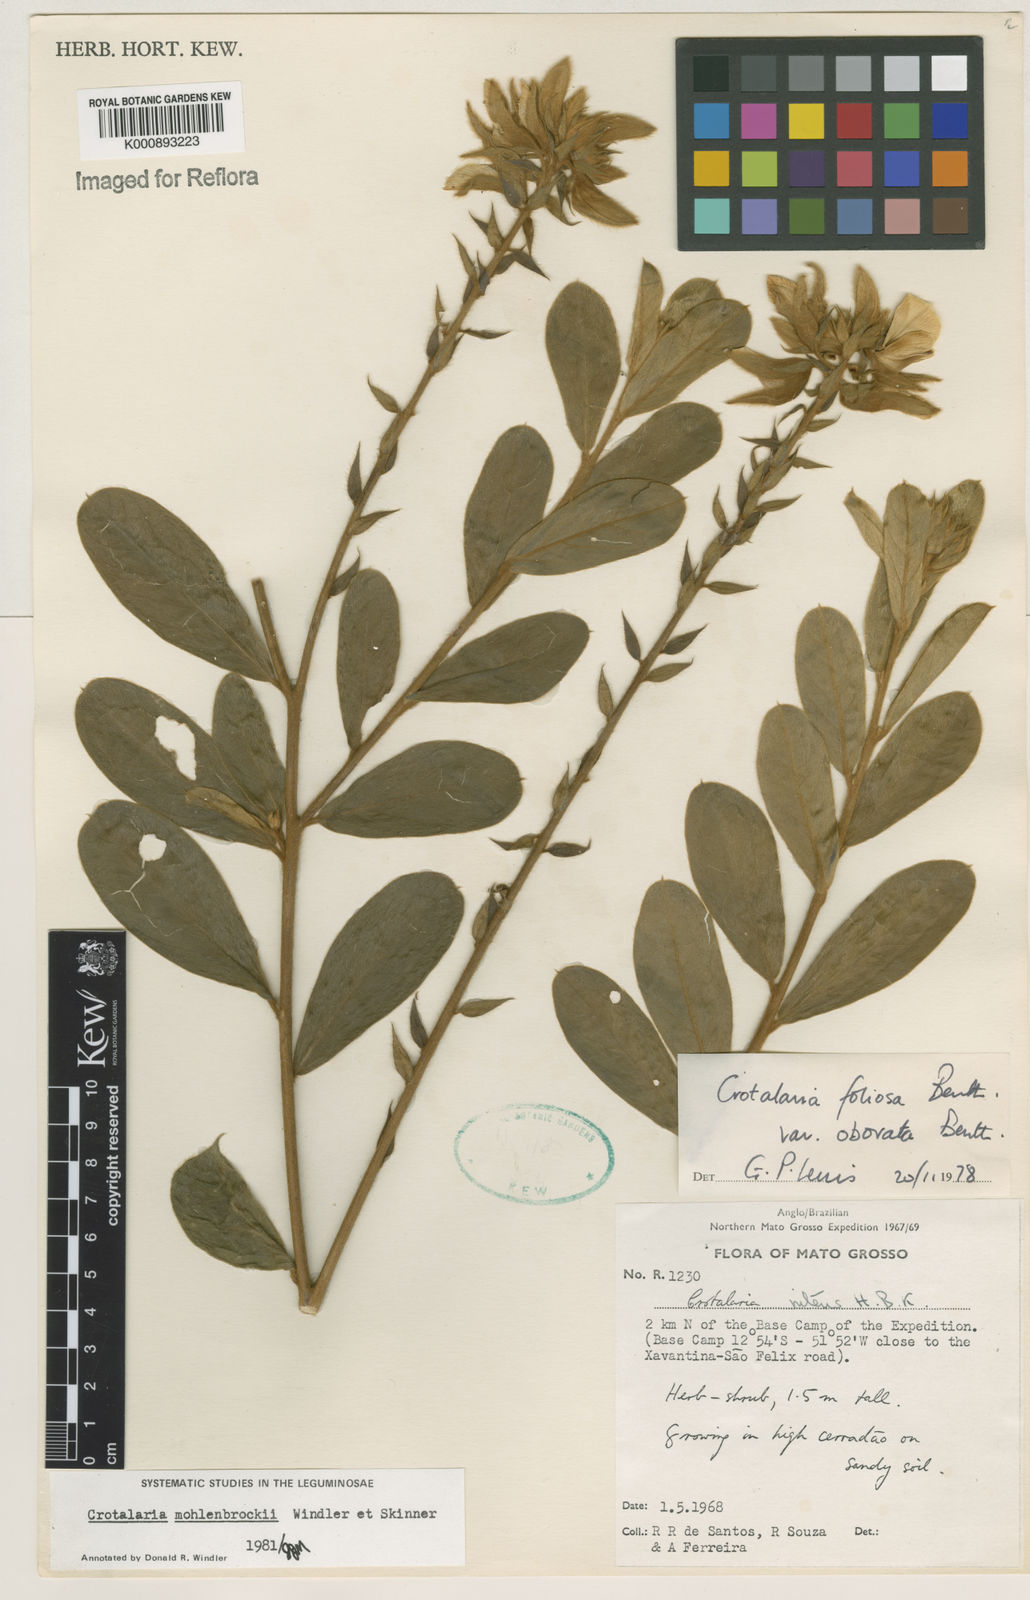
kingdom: Plantae
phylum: Tracheophyta
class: Magnoliopsida
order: Fabales
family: Fabaceae
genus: Crotalaria
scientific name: Crotalaria martiana
